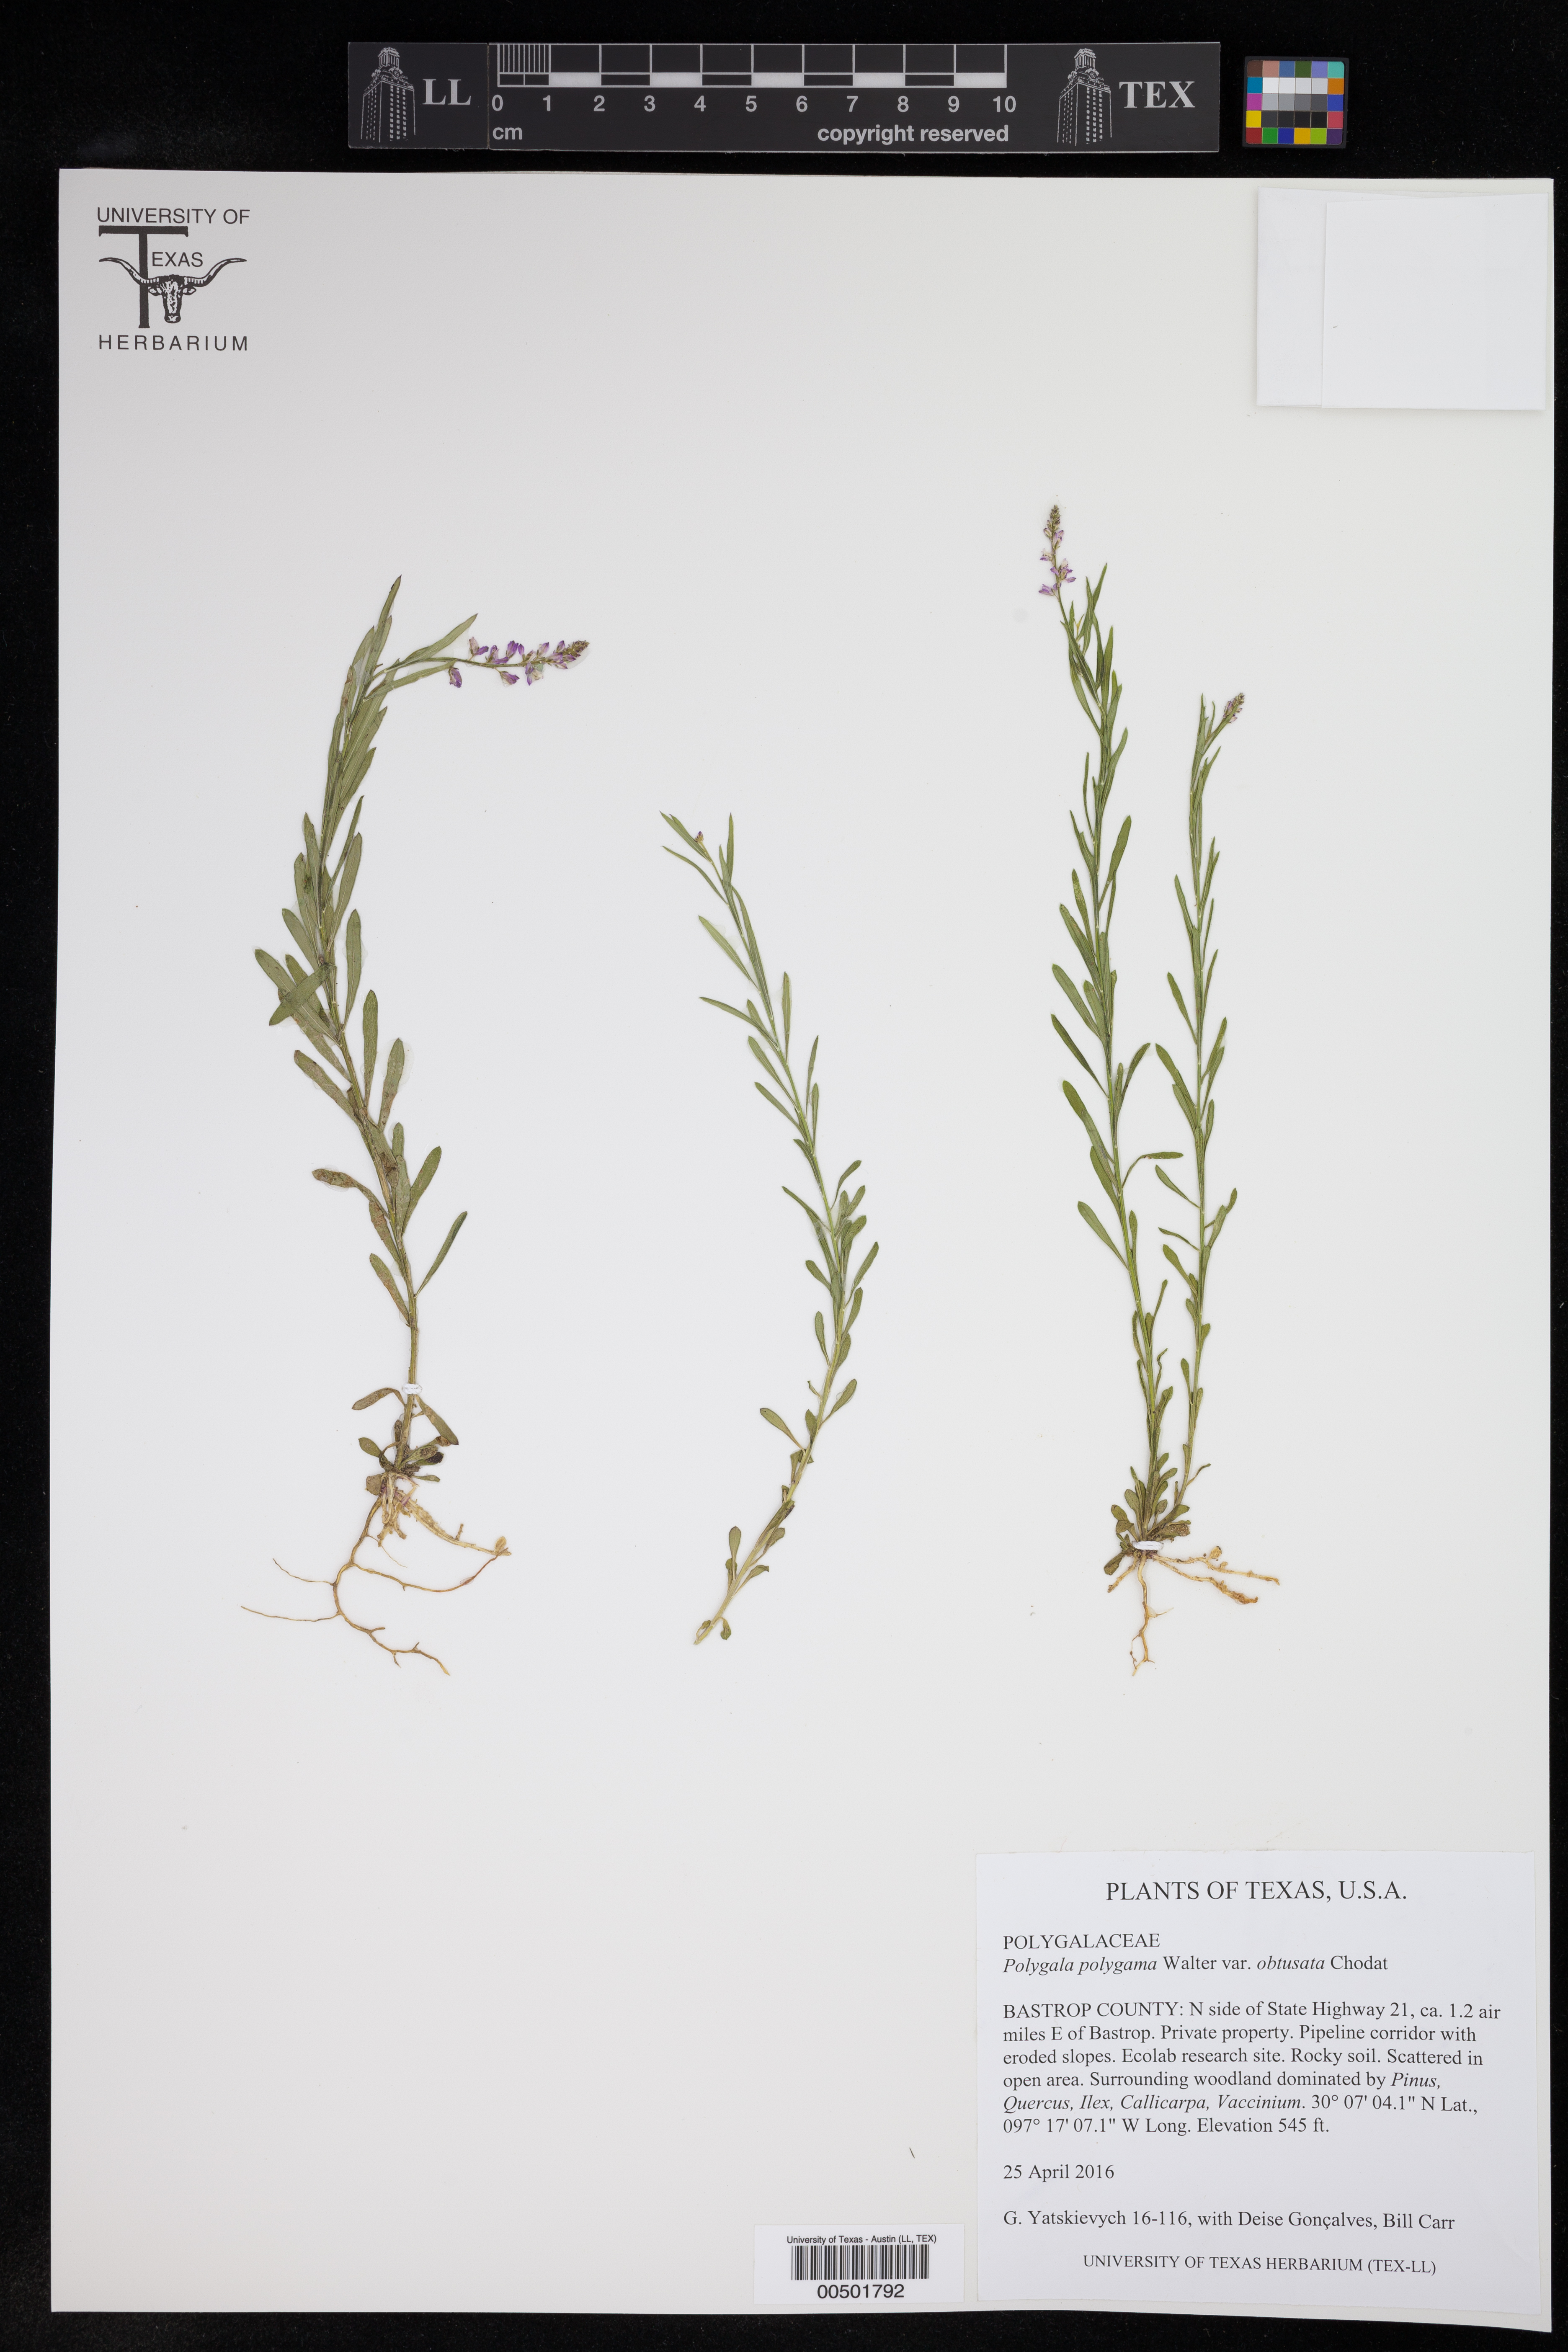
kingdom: Plantae
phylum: Tracheophyta
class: Magnoliopsida
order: Fabales
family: Polygalaceae
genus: Polygala
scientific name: Polygala polygama
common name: Bitter milkwort
